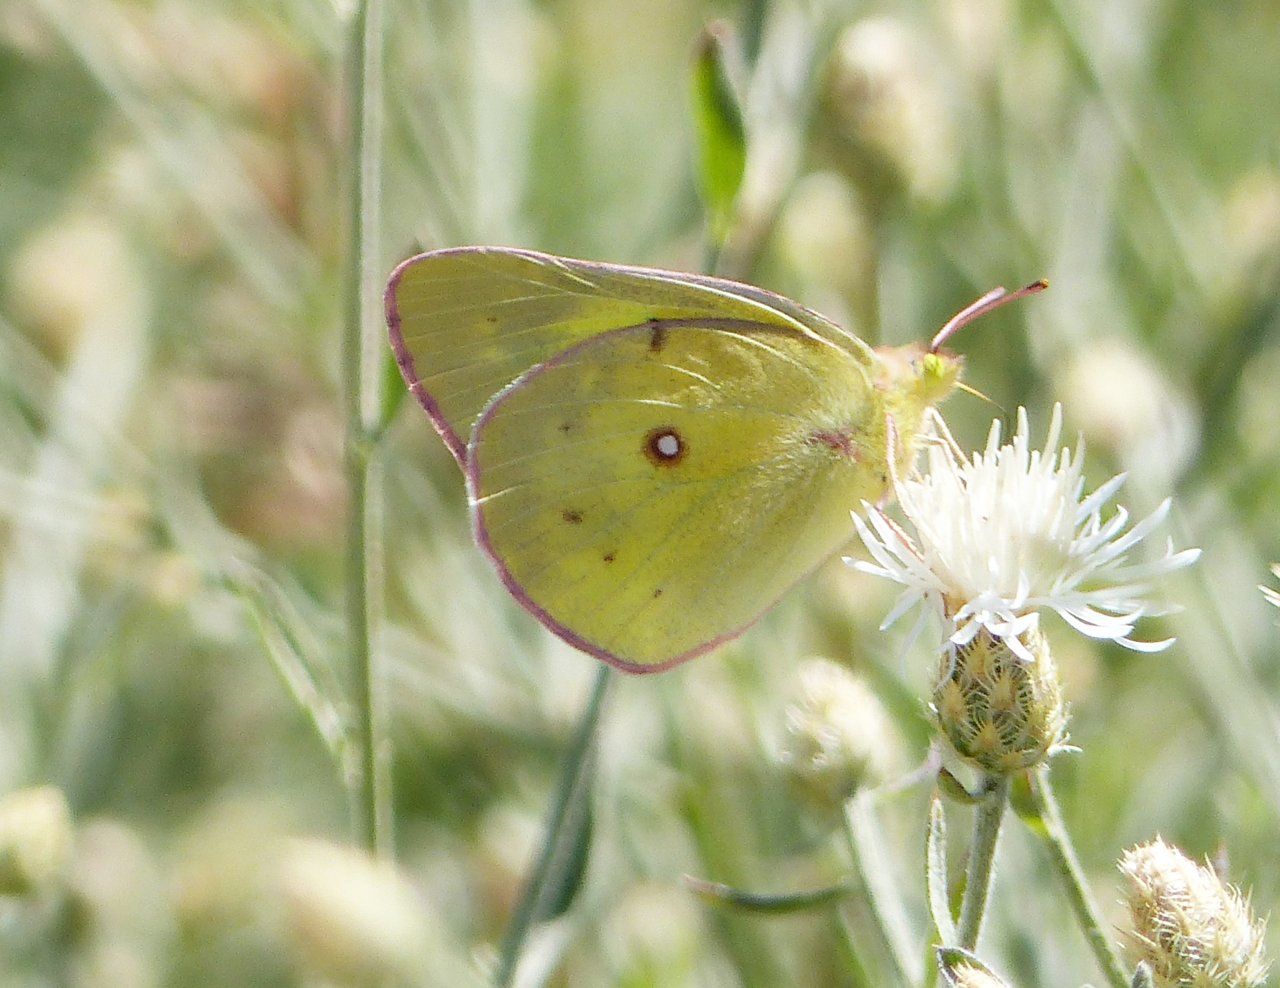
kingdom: Animalia
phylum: Arthropoda
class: Insecta
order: Lepidoptera
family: Pieridae
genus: Colias
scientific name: Colias interior
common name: Pink-edged Sulphur
